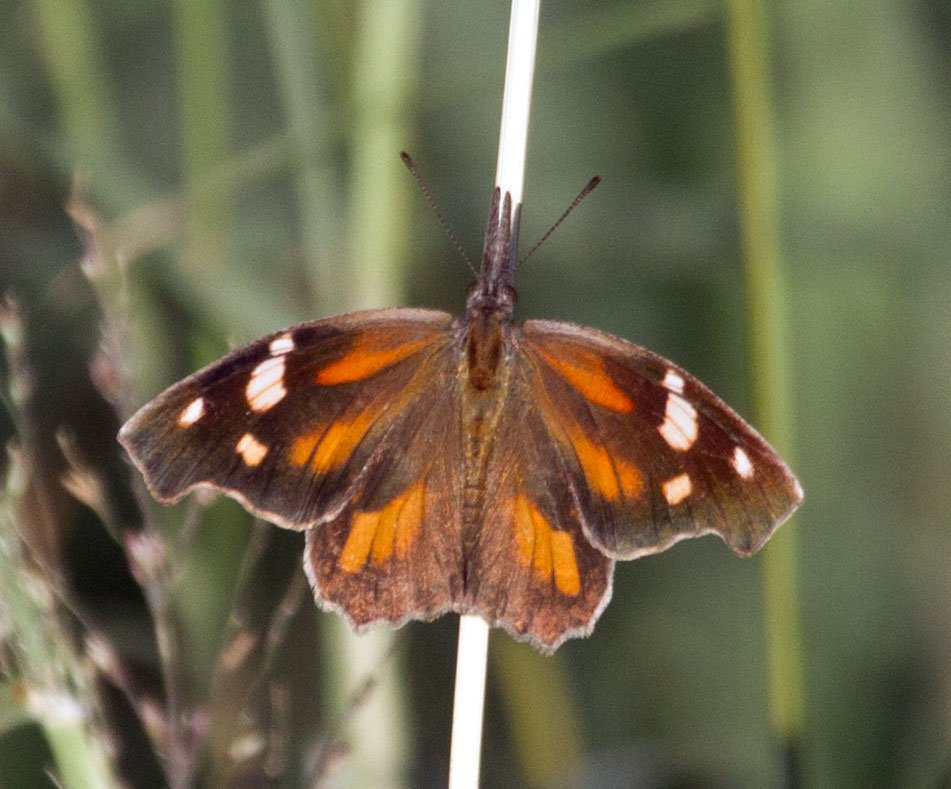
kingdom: Animalia
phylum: Arthropoda
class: Insecta
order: Lepidoptera
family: Nymphalidae
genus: Libytheana
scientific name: Libytheana carinenta
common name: American Snout
